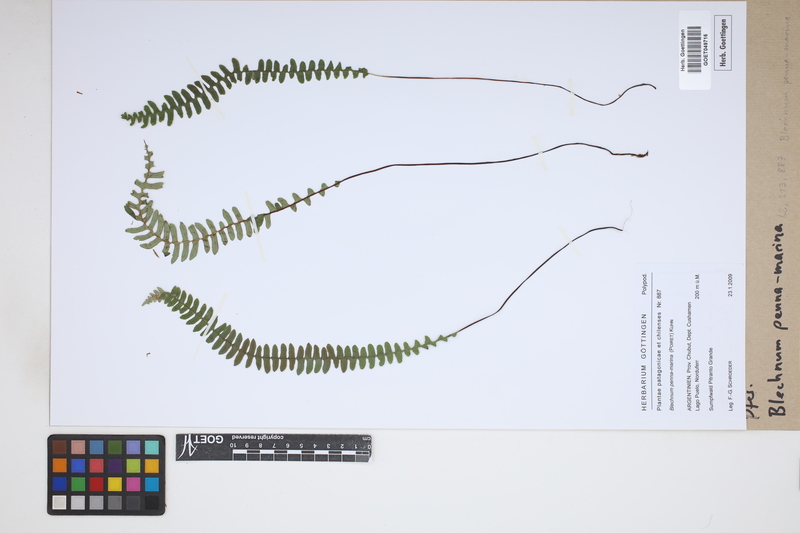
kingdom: Plantae
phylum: Tracheophyta
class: Polypodiopsida
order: Polypodiales
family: Blechnaceae
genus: Austroblechnum
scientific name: Austroblechnum penna-marina
